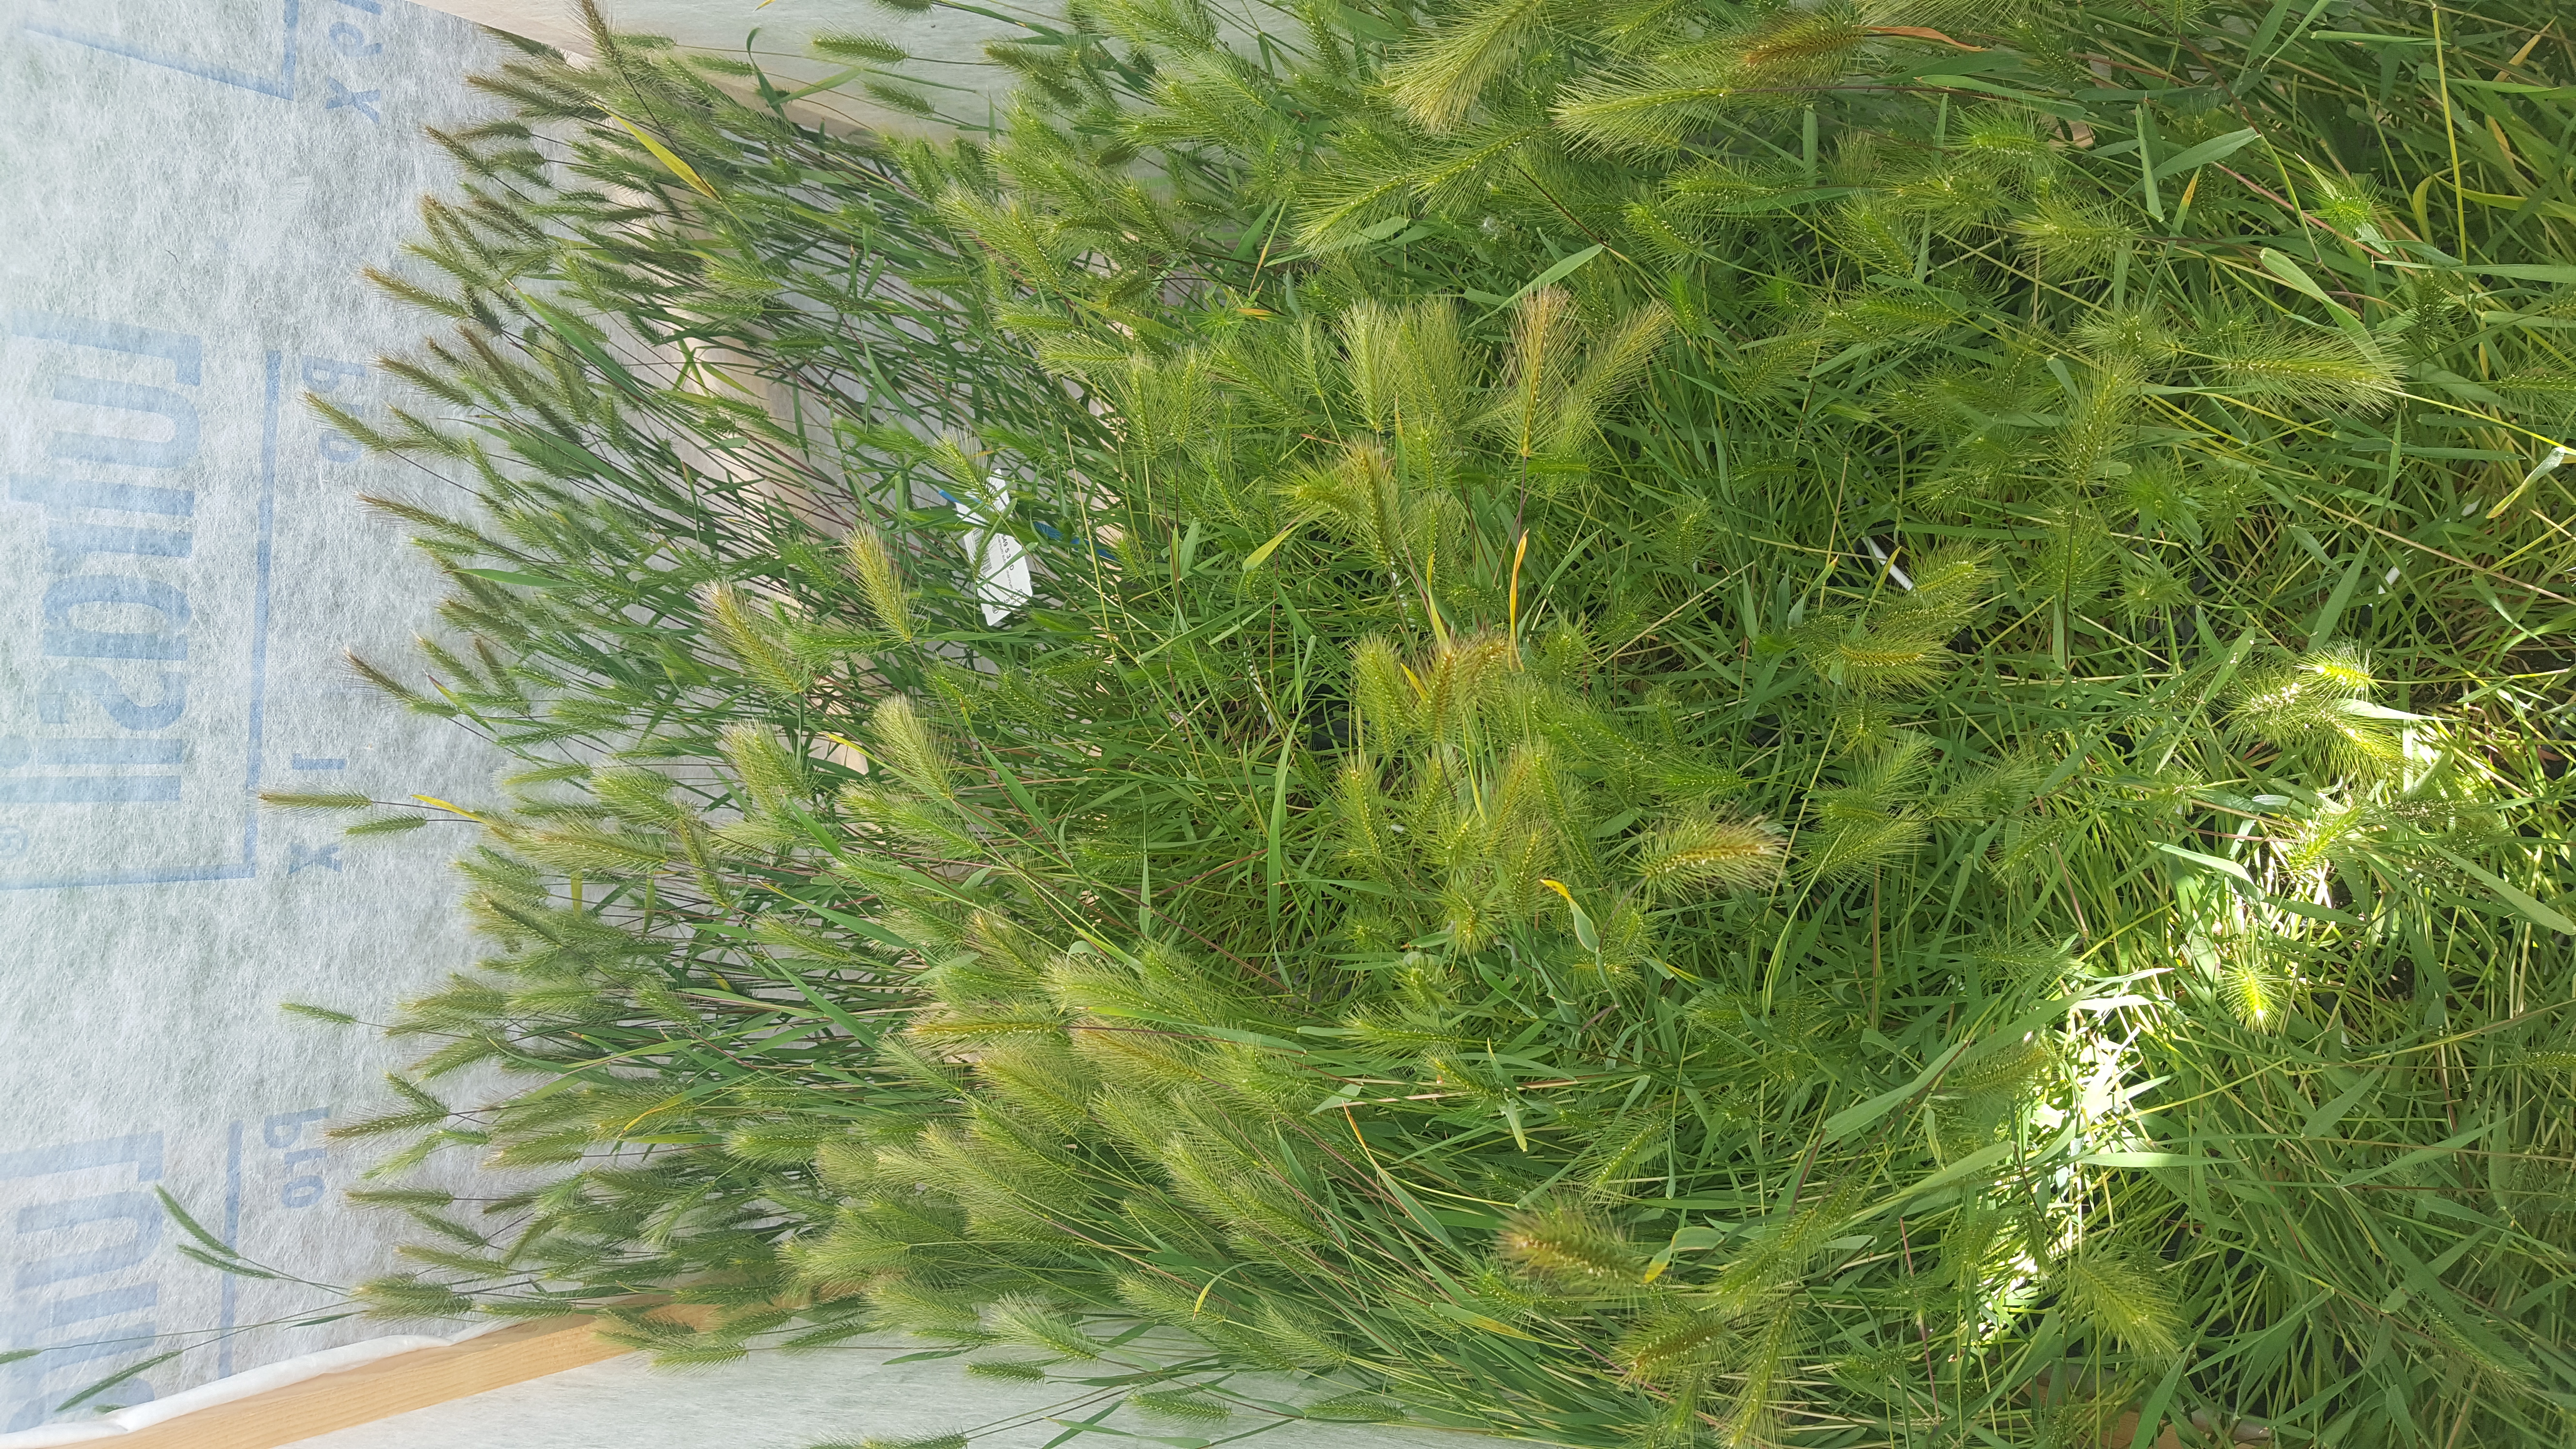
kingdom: Plantae
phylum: Tracheophyta
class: Liliopsida
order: Poales
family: Poaceae
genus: Hordeum
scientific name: Hordeum marinum
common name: Sea barley
